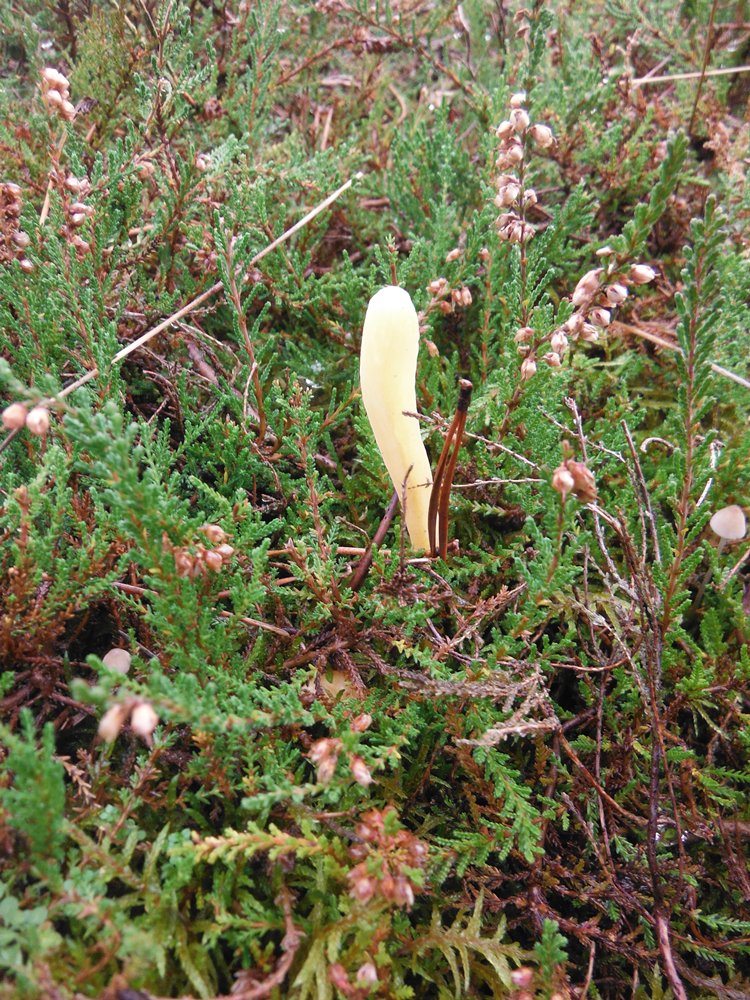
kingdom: Fungi
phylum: Basidiomycota
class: Agaricomycetes
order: Agaricales
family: Clavariaceae
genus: Clavaria
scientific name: Clavaria argillacea
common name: lerfarvet køllesvamp
